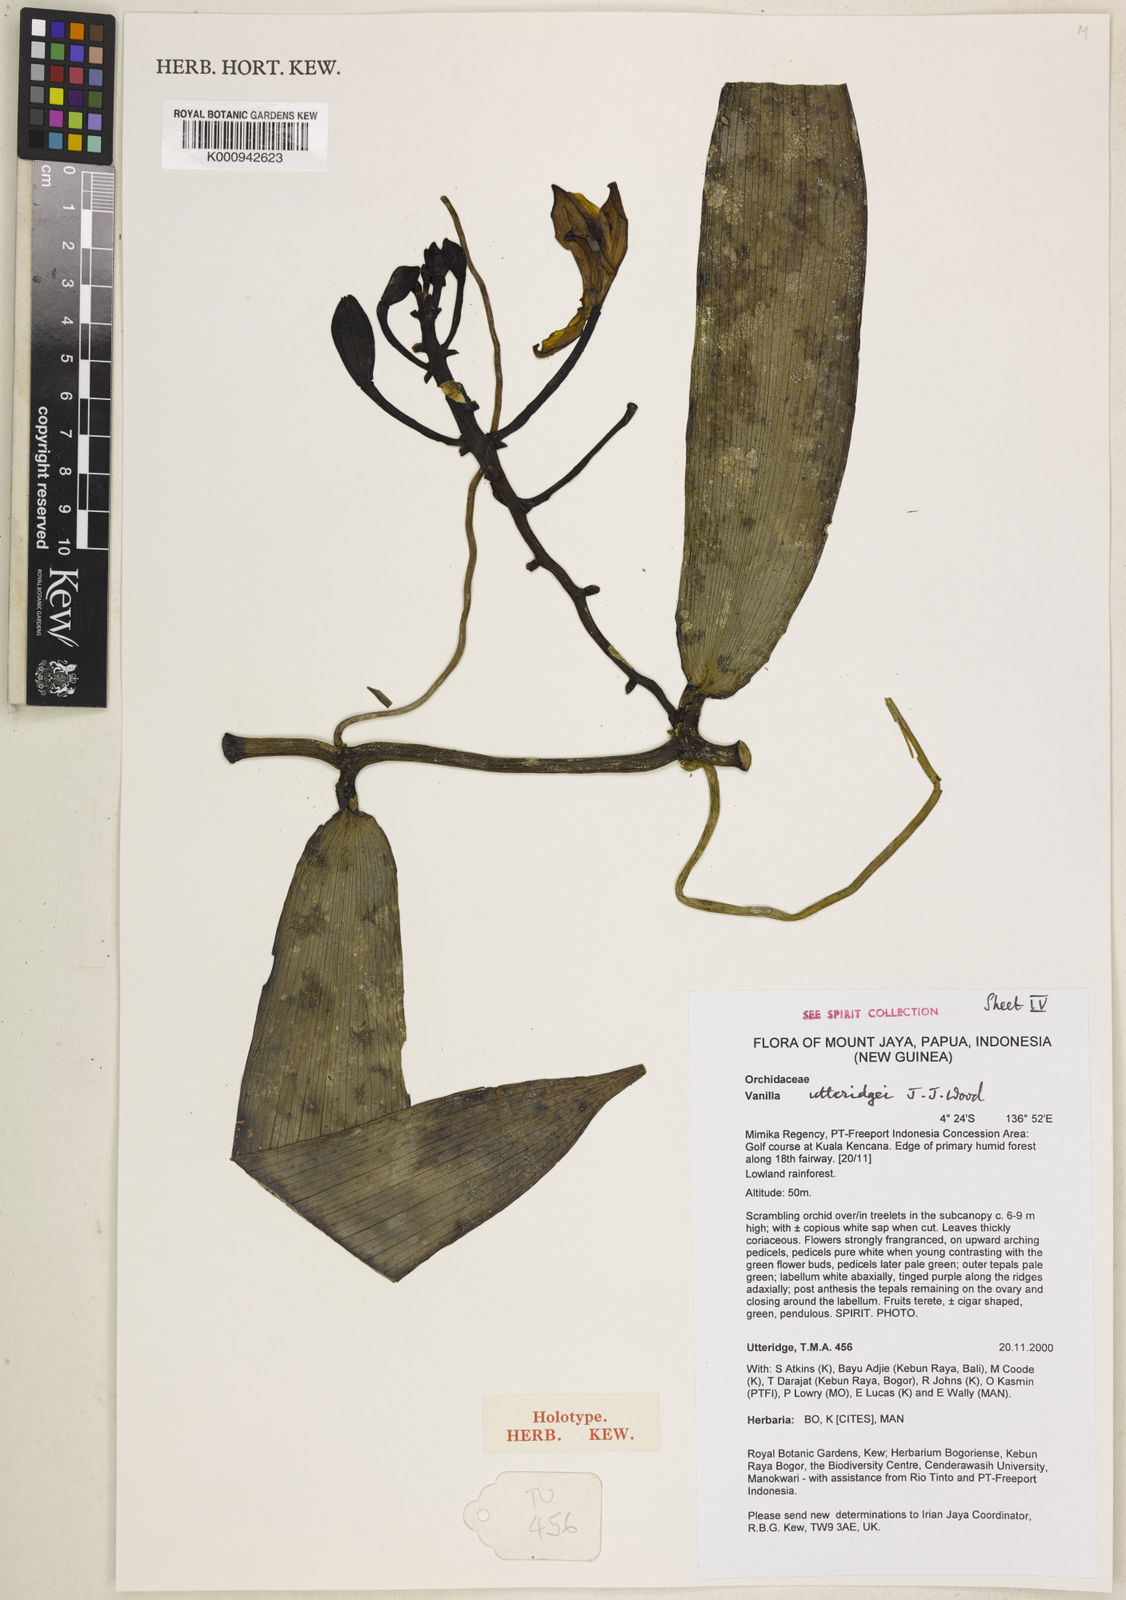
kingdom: Plantae
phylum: Tracheophyta
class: Liliopsida
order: Asparagales
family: Orchidaceae
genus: Vanilla
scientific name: Vanilla utteridgei
